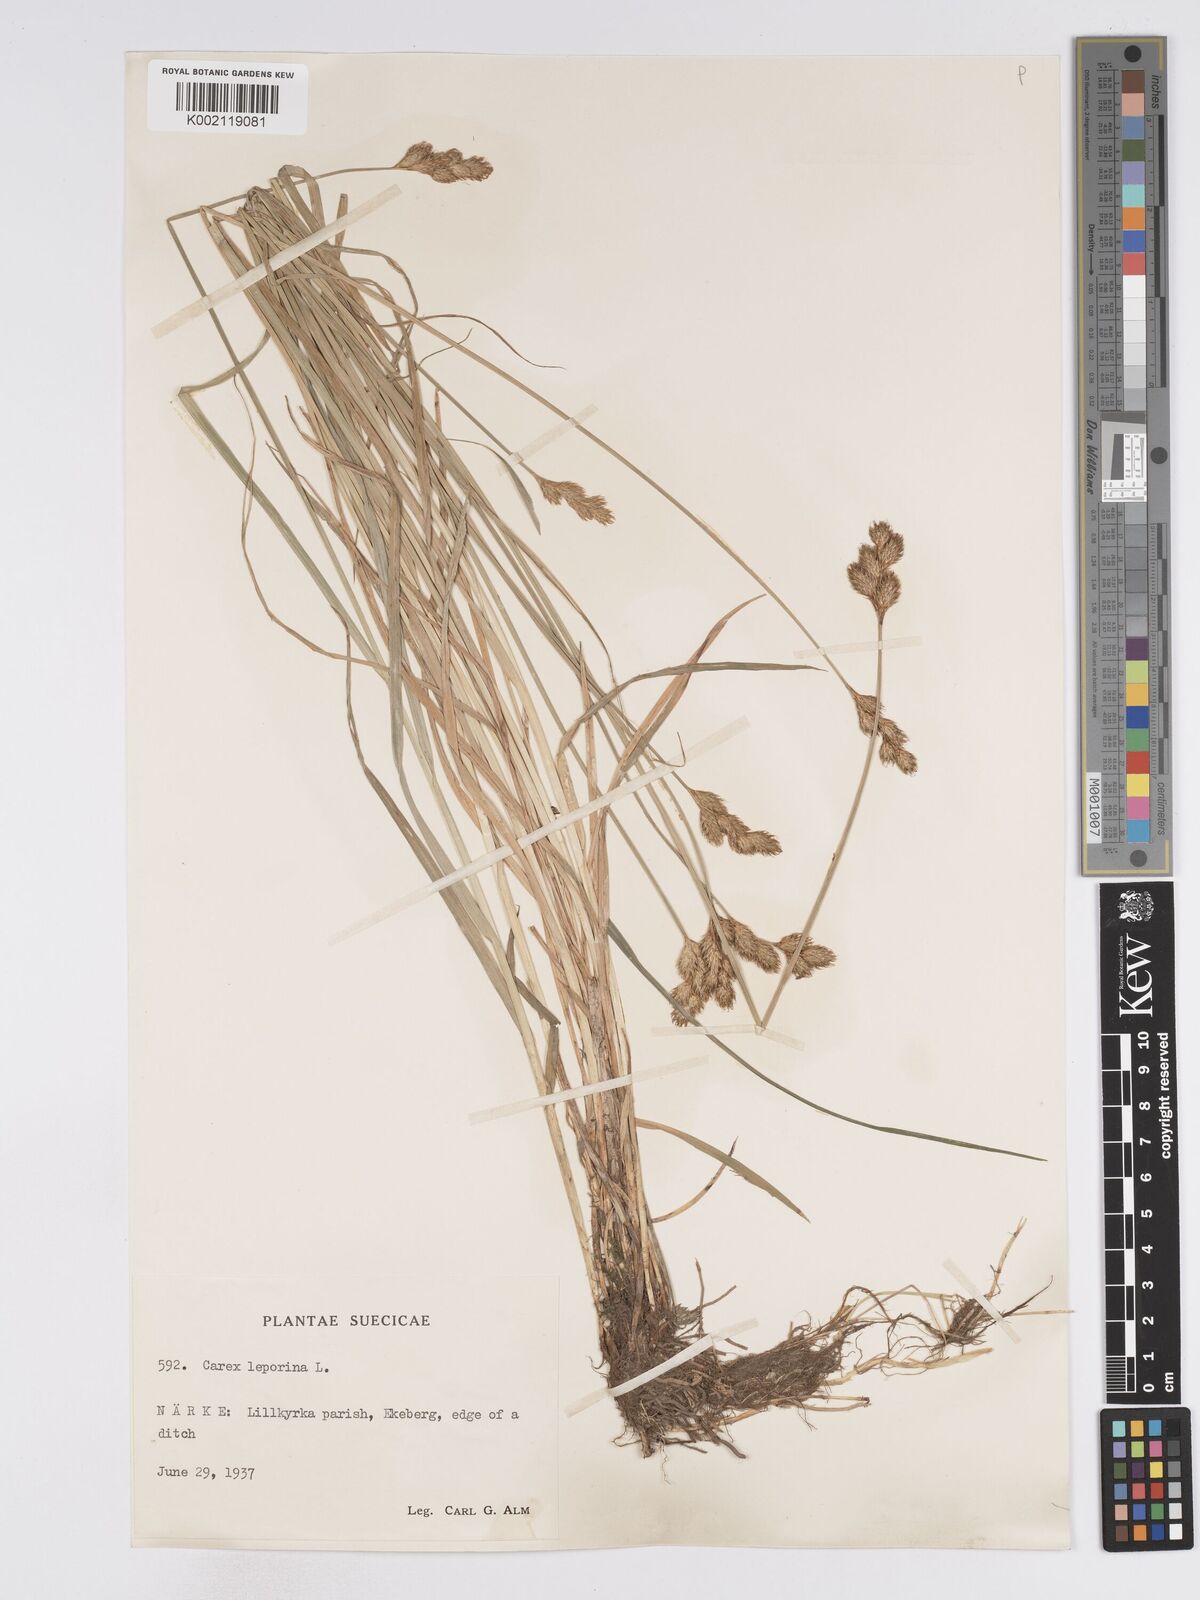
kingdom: Plantae
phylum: Tracheophyta
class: Liliopsida
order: Poales
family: Cyperaceae
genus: Carex
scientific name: Carex leporina
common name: Oval sedge
